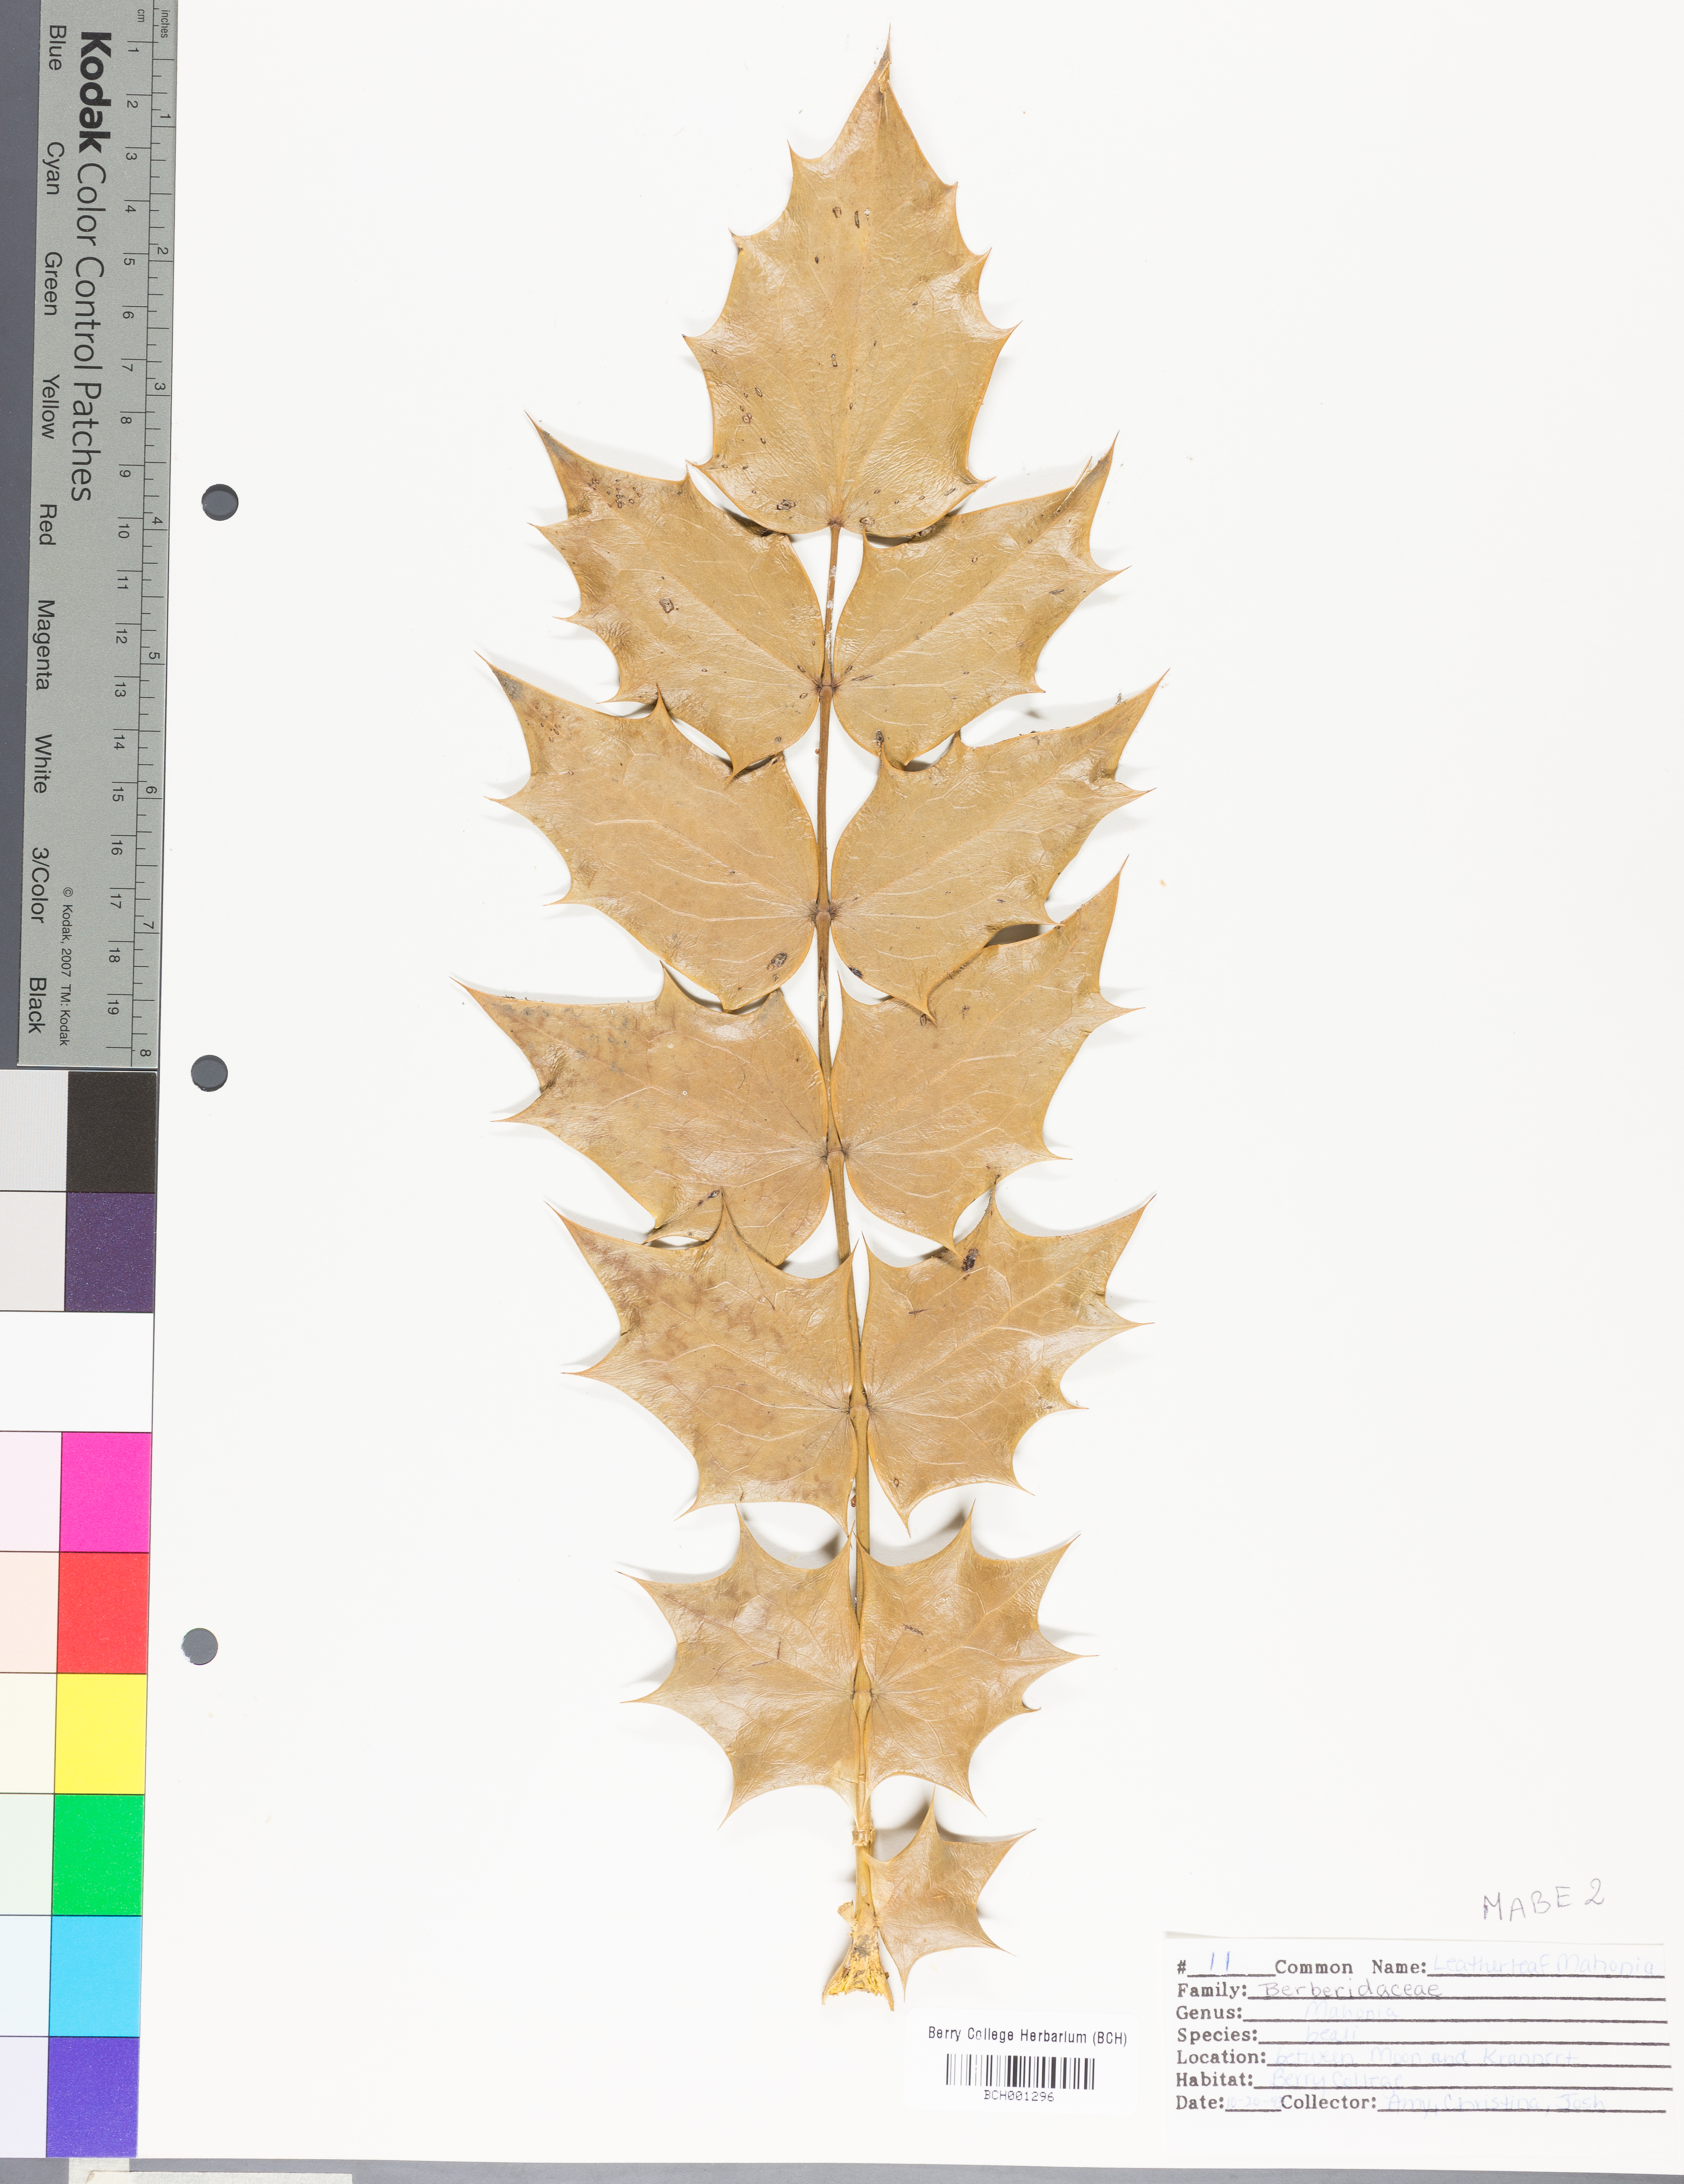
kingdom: Plantae
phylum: Tracheophyta
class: Magnoliopsida
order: Ranunculales
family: Berberidaceae
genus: Berberis
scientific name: Berberis darwinii
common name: Darwin's barberry
